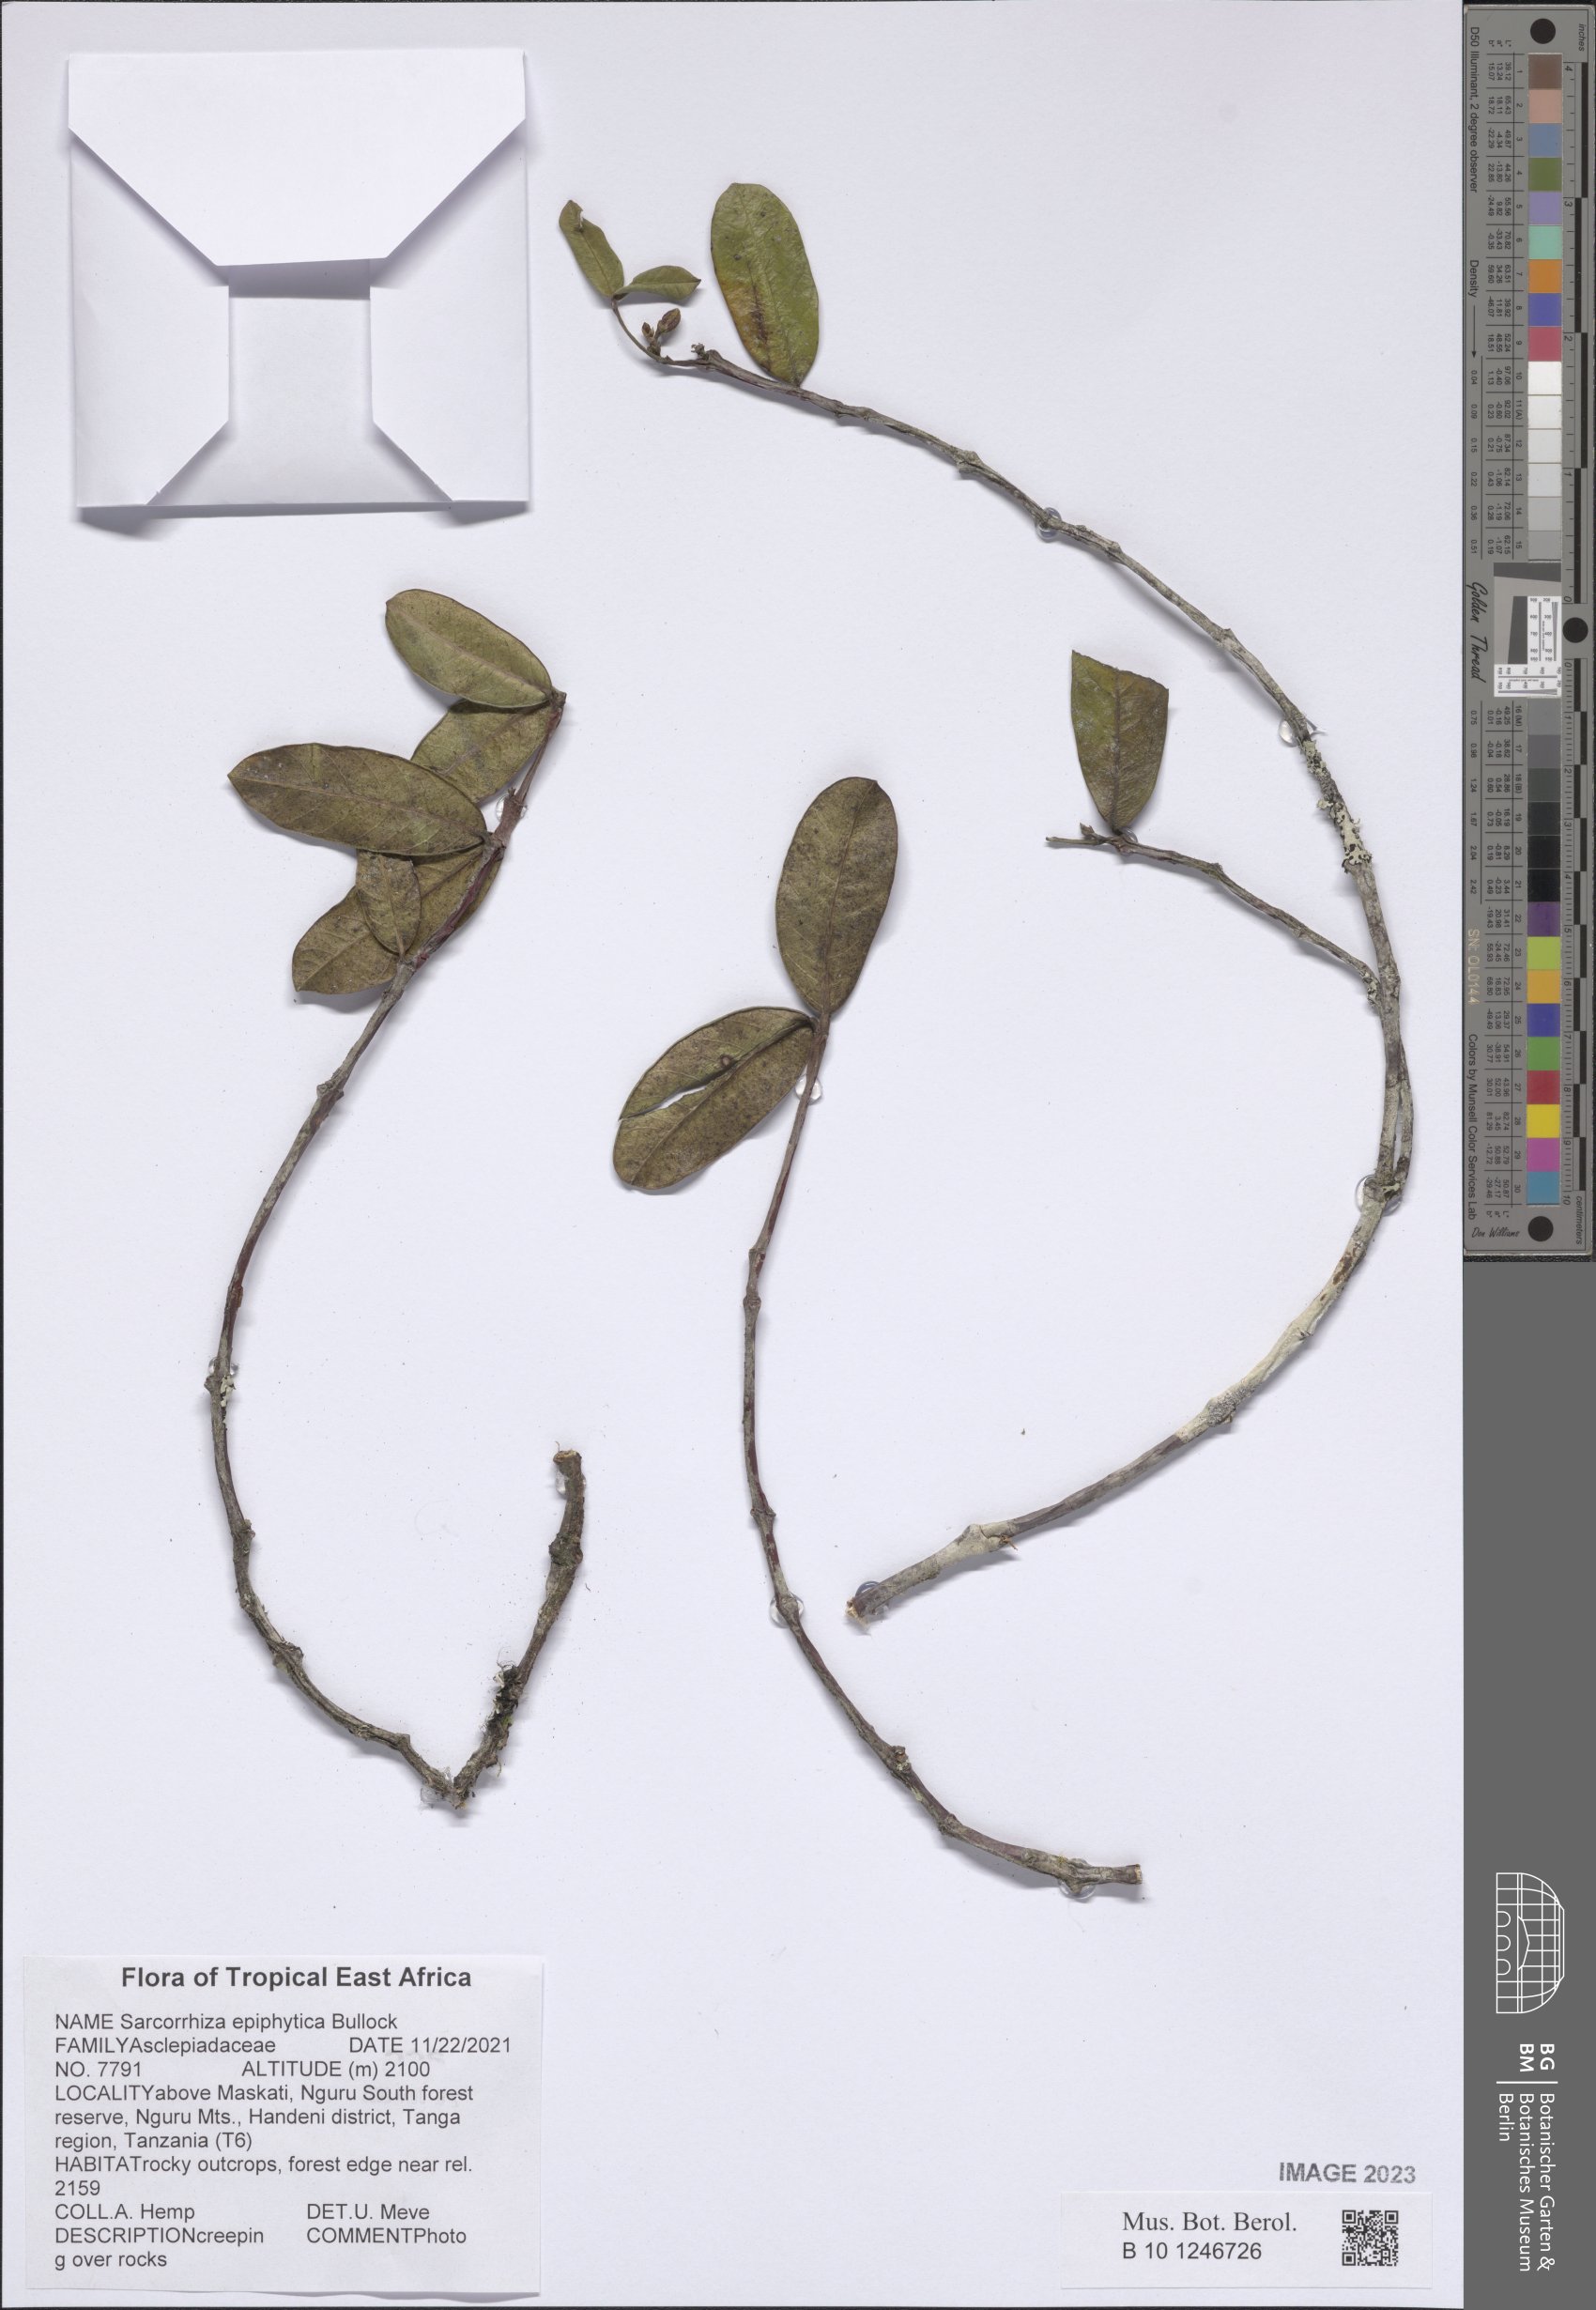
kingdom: Plantae
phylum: Tracheophyta
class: Magnoliopsida
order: Gentianales
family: Apocynaceae
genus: Sarcorrhiza
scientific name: Sarcorrhiza epiphytica
